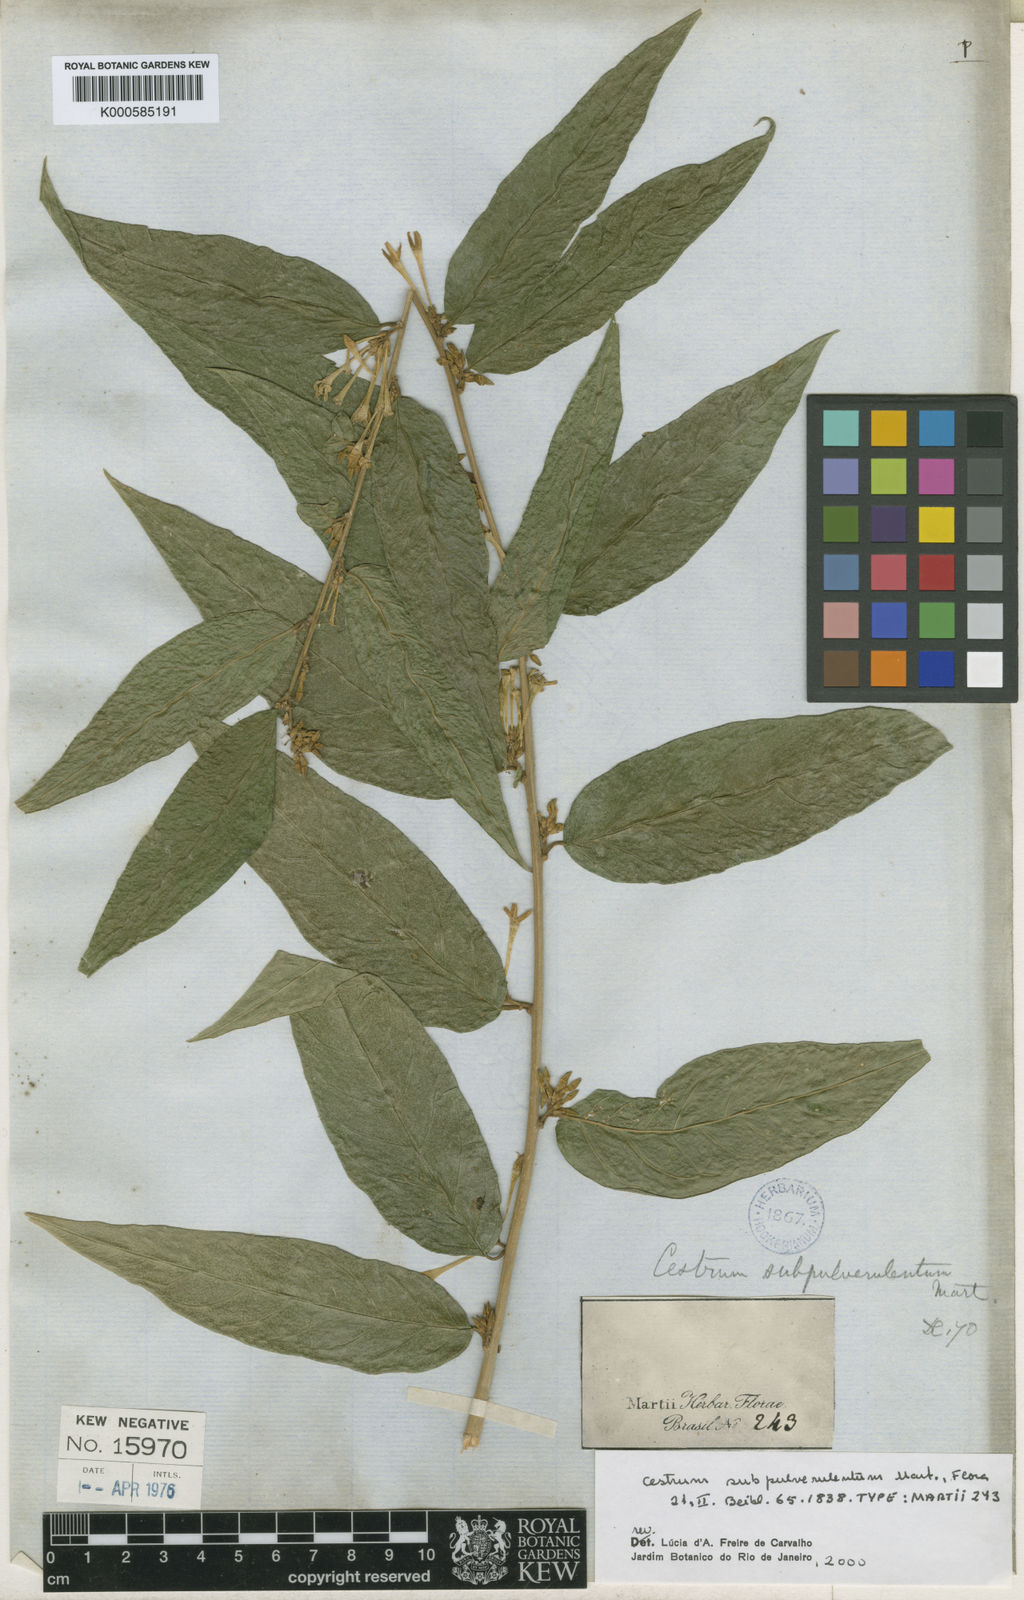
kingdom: Plantae
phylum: Tracheophyta
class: Magnoliopsida
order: Solanales
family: Solanaceae
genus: Cestrum
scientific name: Cestrum subpulverulentum
